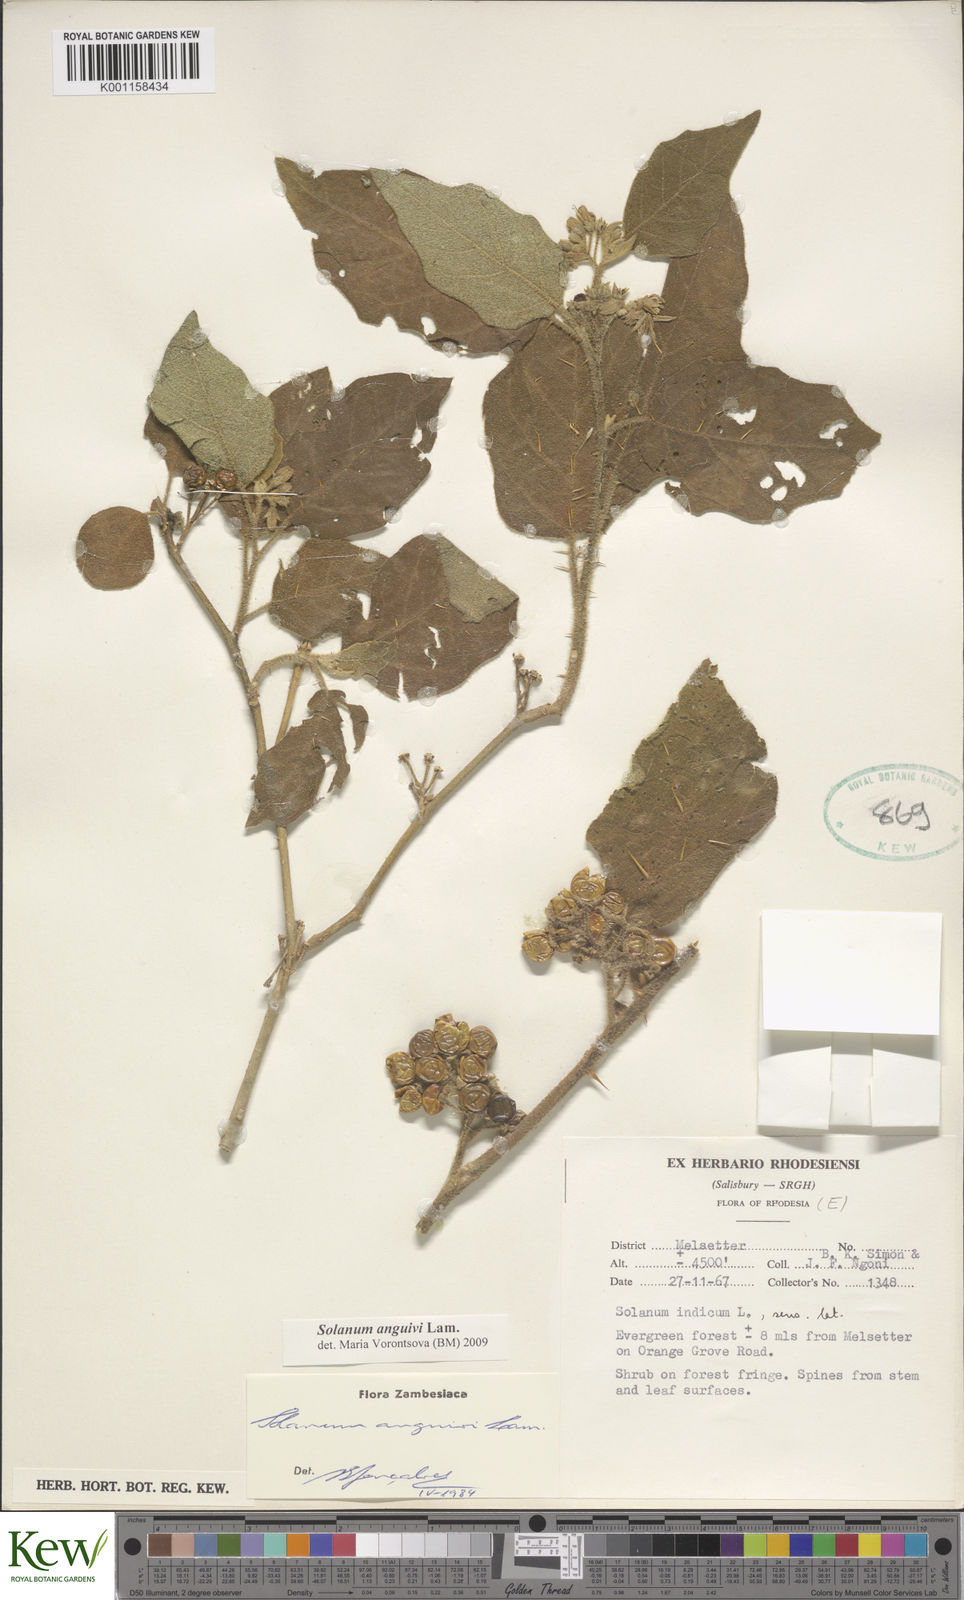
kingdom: Plantae
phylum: Tracheophyta
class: Magnoliopsida
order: Solanales
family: Solanaceae
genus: Solanum
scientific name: Solanum anguivi
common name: Forest bitterberry
